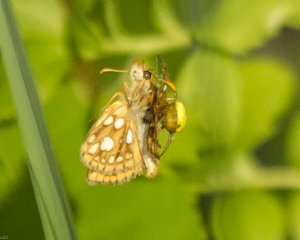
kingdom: Animalia
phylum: Arthropoda
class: Insecta
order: Lepidoptera
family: Hesperiidae
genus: Carterocephalus
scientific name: Carterocephalus palaemon
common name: Chequered Skipper
